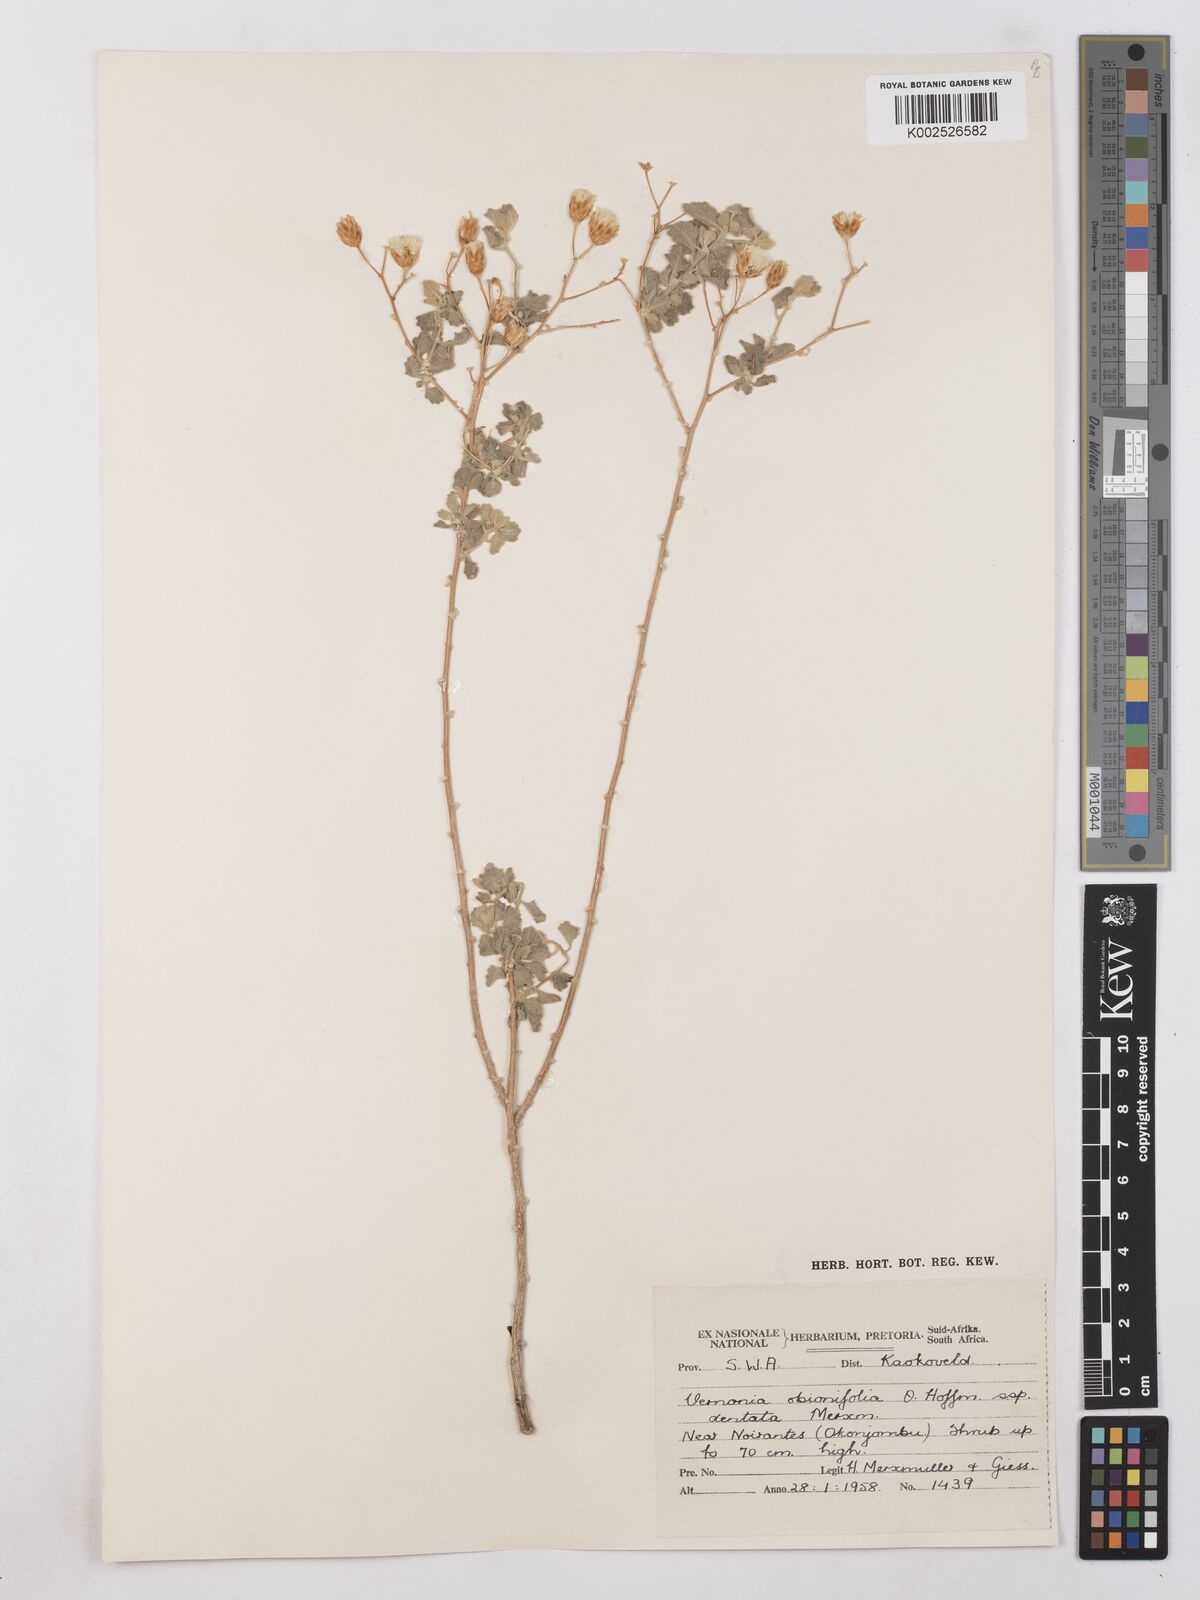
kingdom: Plantae
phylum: Tracheophyta
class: Magnoliopsida
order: Asterales
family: Asteraceae
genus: Namibithamnus
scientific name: Namibithamnus obionifolius
